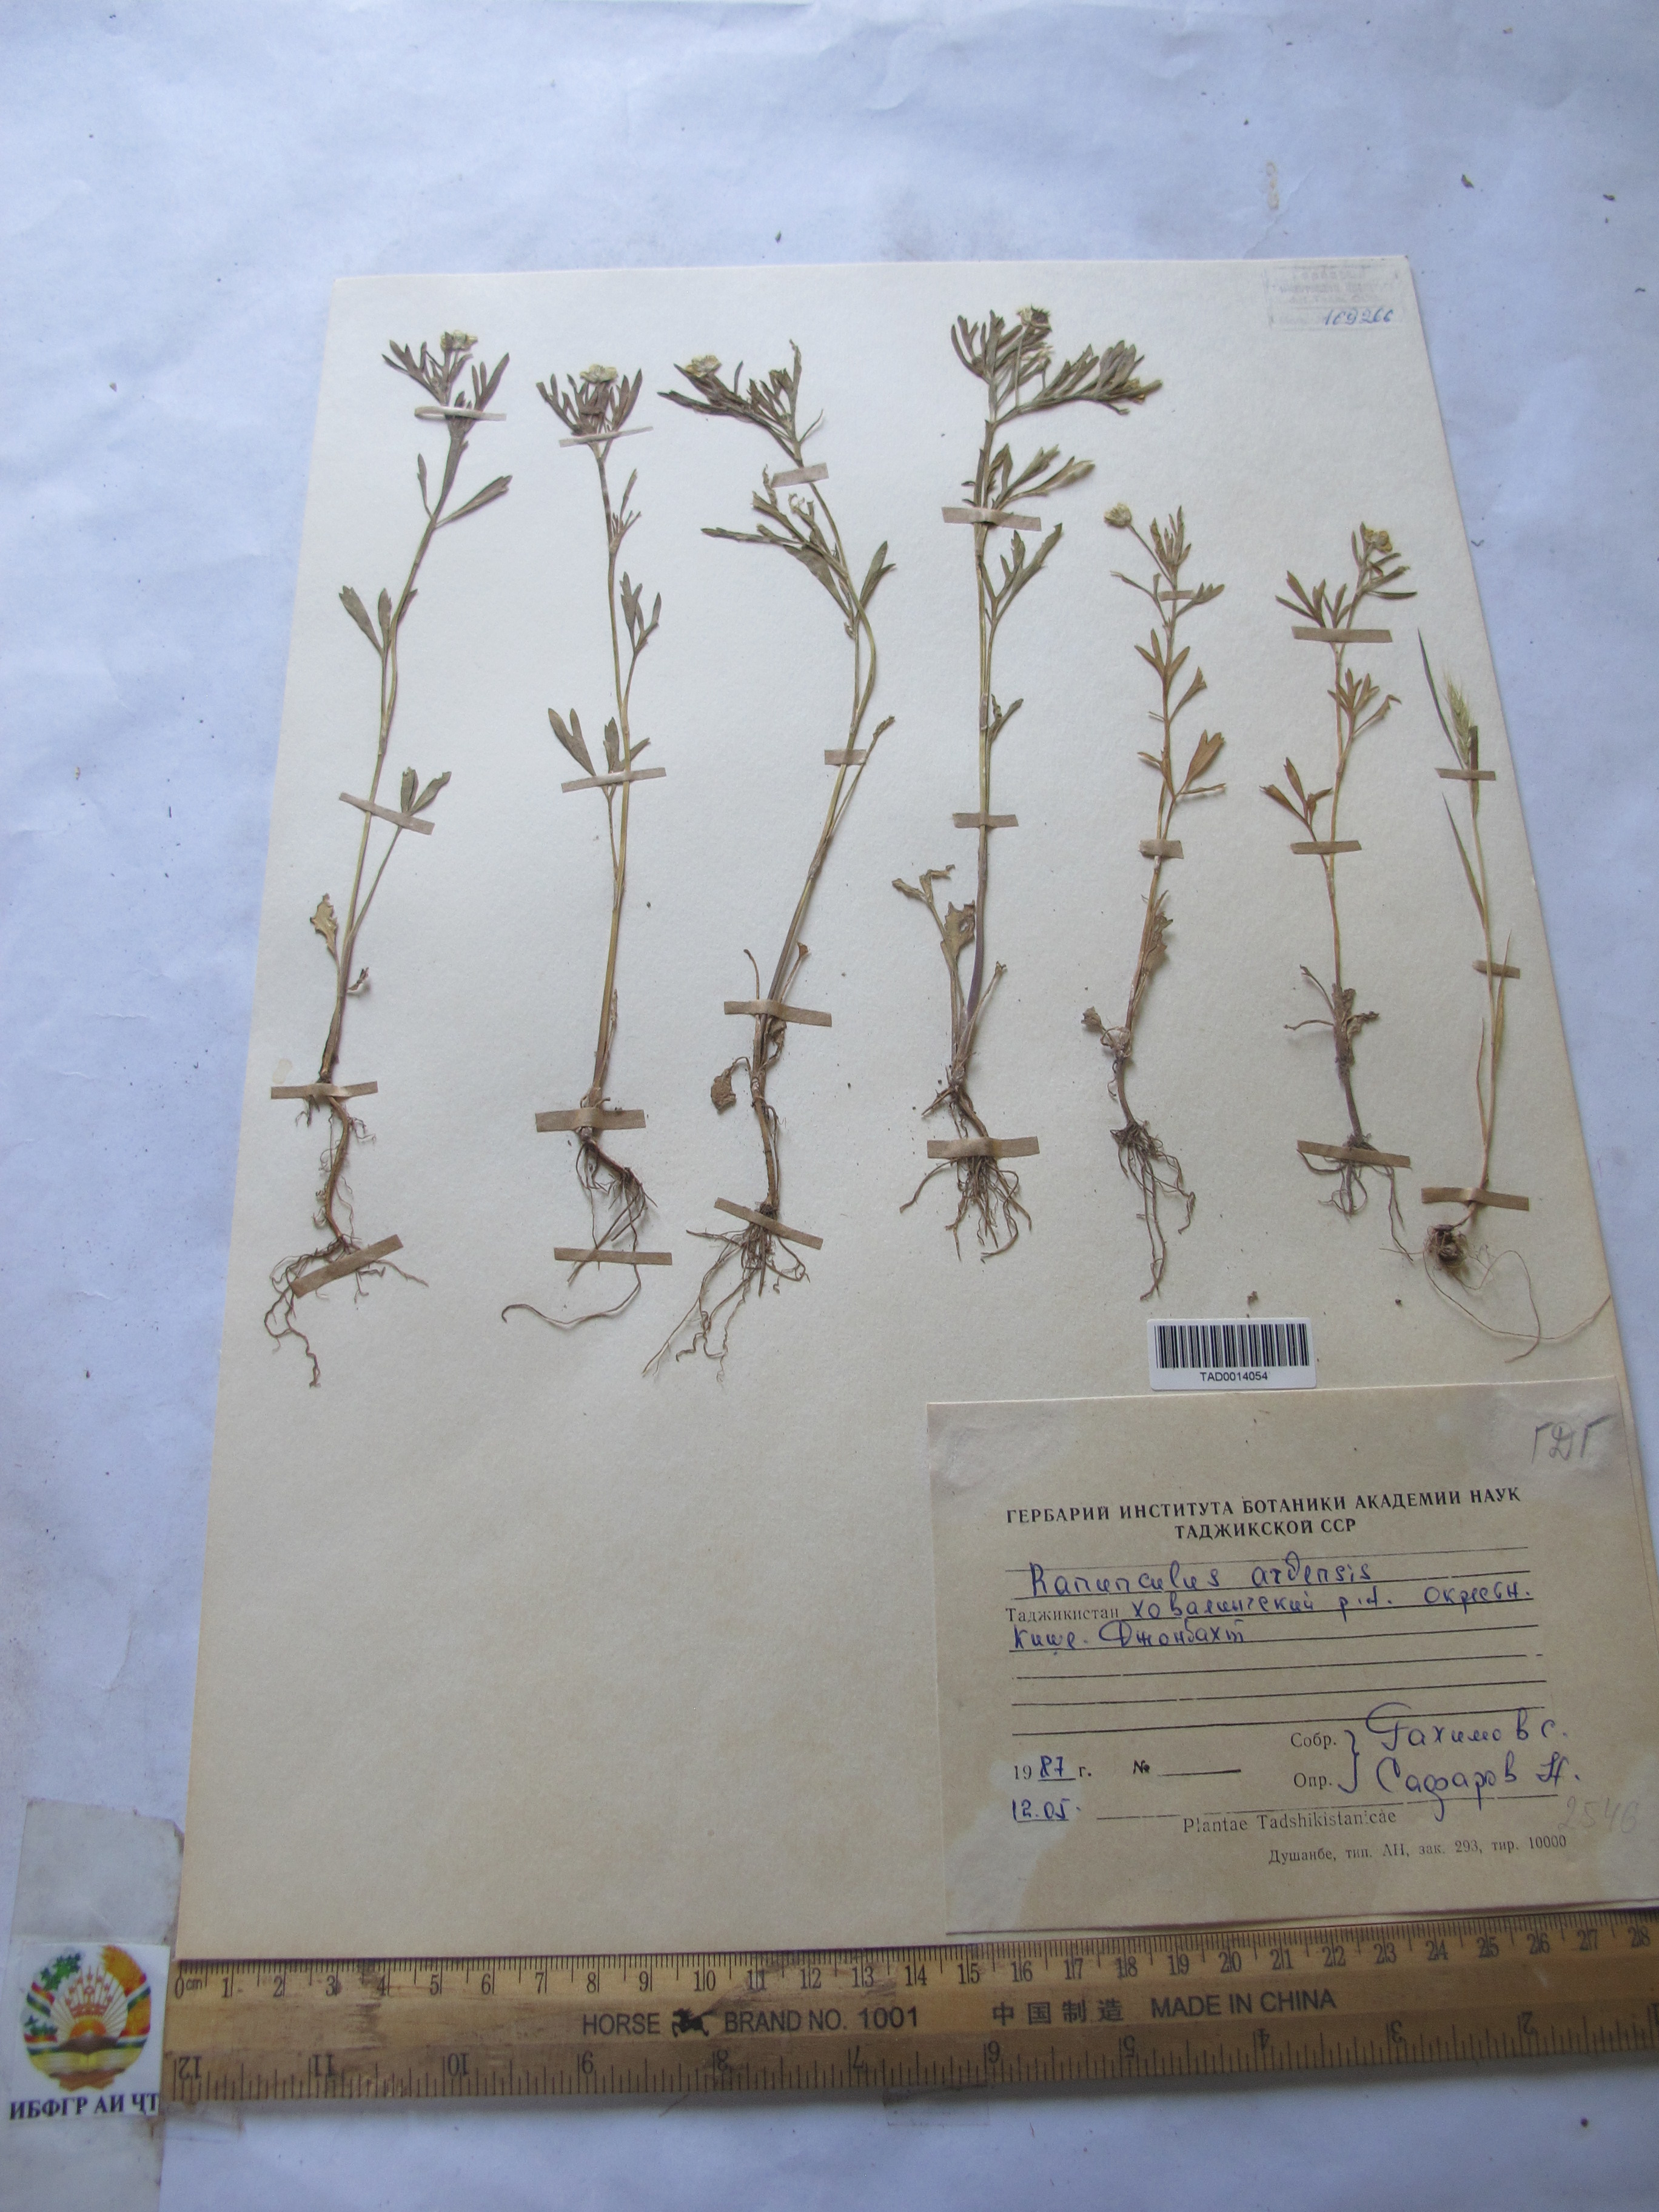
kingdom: Plantae
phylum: Tracheophyta
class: Magnoliopsida
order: Ranunculales
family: Ranunculaceae
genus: Ranunculus
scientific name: Ranunculus arvensis
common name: Corn buttercup
